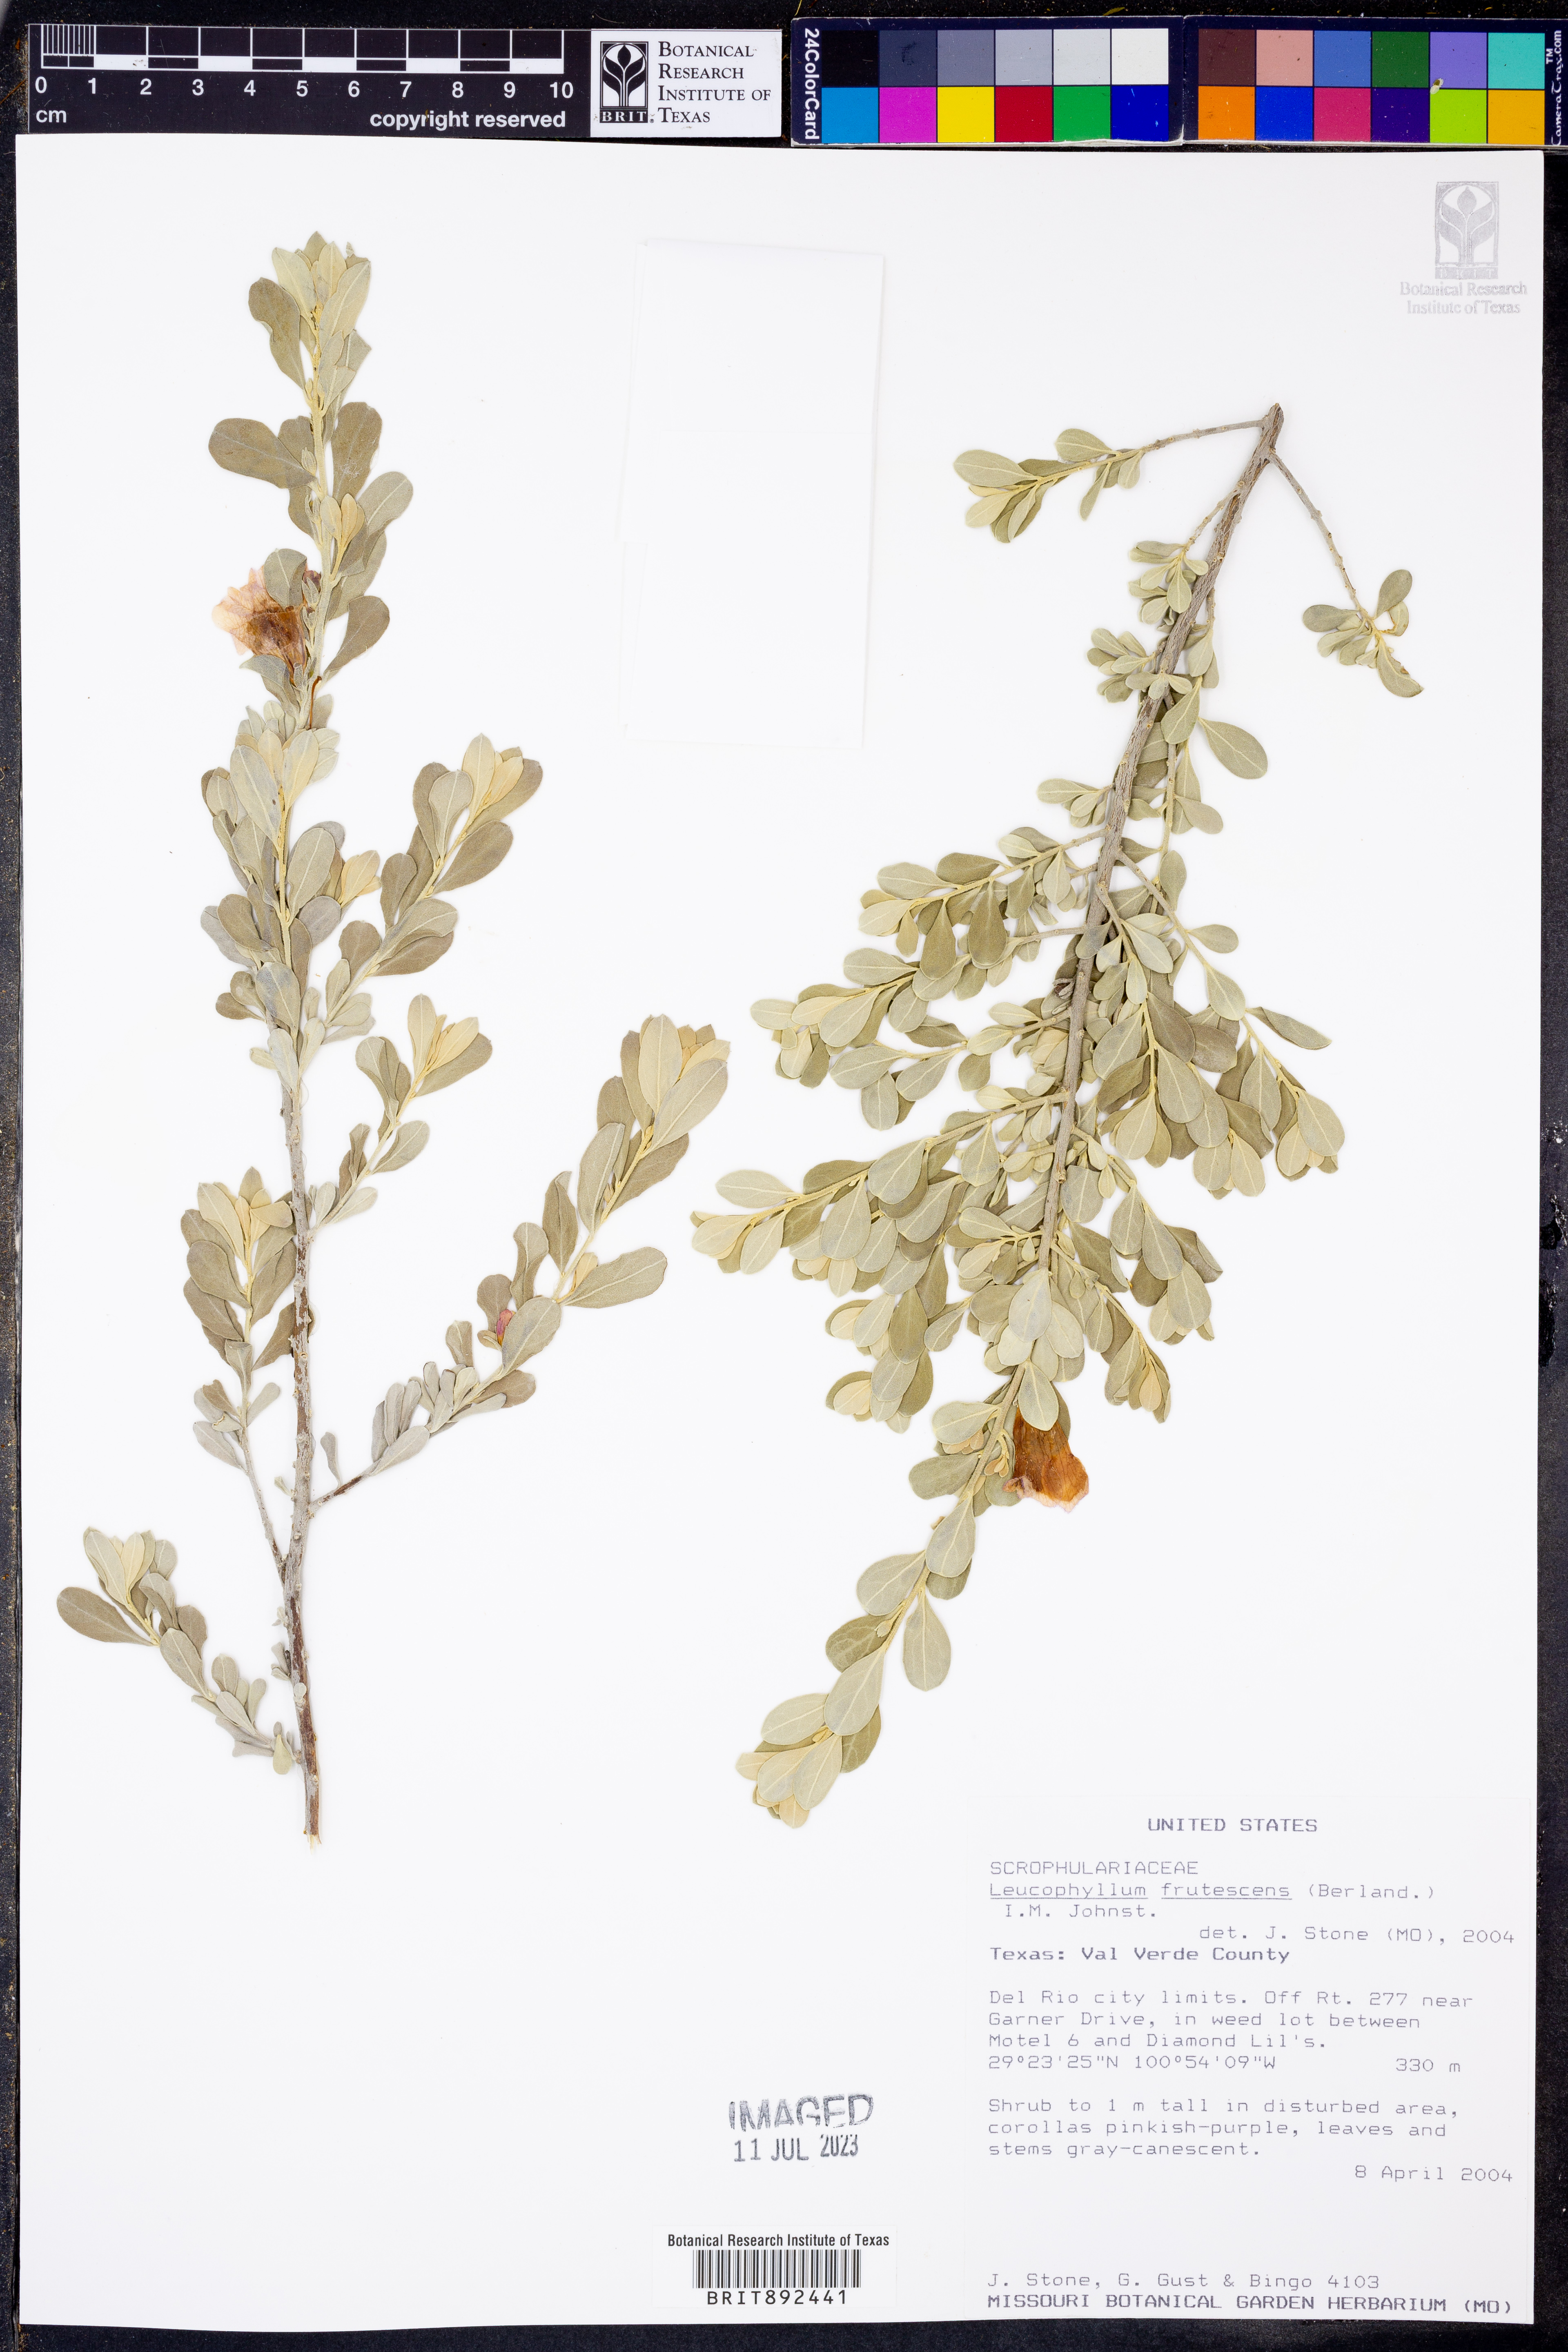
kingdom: Plantae
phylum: Tracheophyta
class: Magnoliopsida
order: Lamiales
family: Scrophulariaceae
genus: Leucophyllum
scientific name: Leucophyllum frutescens
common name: Texas silverleaf
